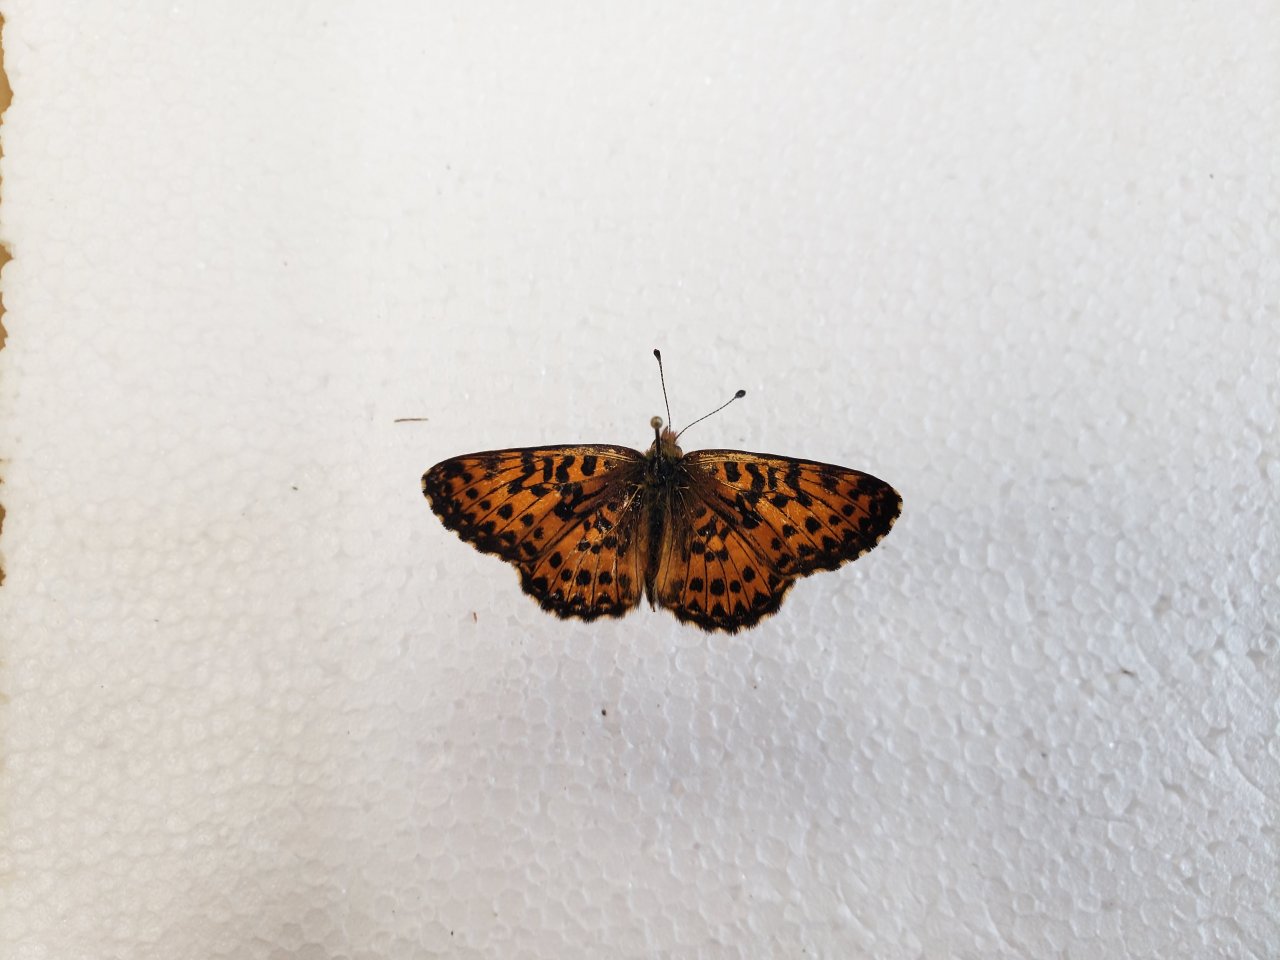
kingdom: Animalia
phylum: Arthropoda
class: Insecta
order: Lepidoptera
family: Nymphalidae
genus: Boloria
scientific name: Boloria chariclea
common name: Arctic Fritillary
